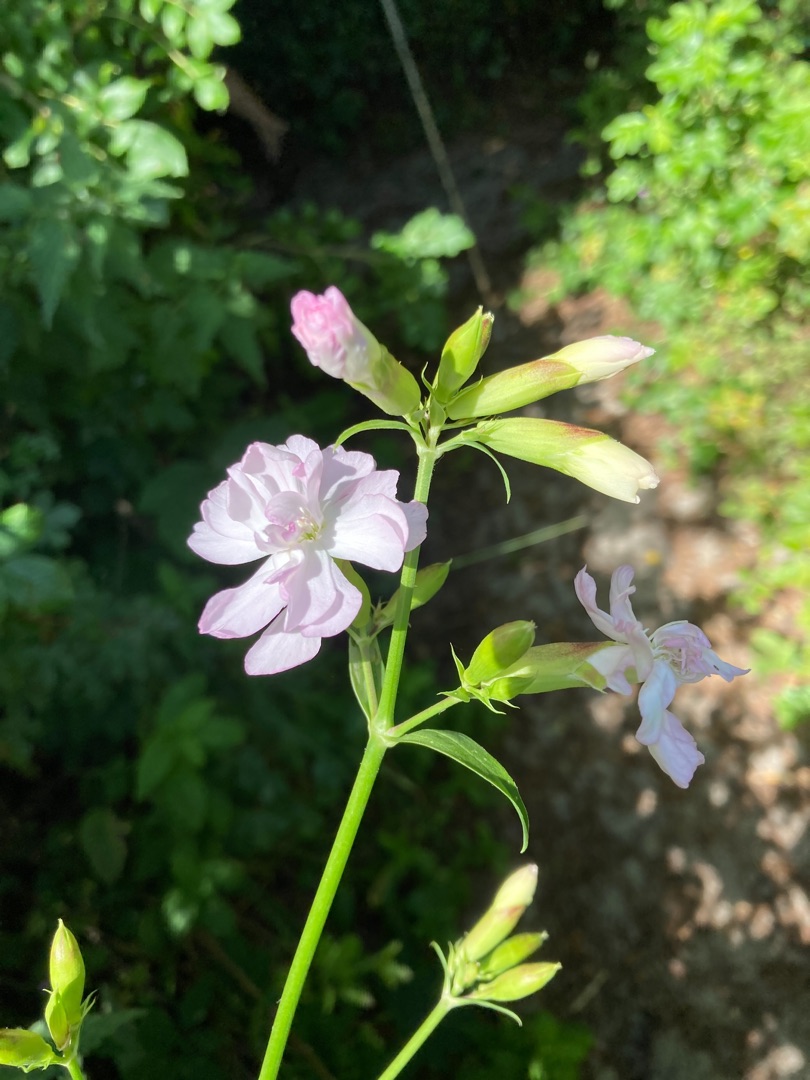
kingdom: Plantae
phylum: Tracheophyta
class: Magnoliopsida
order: Caryophyllales
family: Caryophyllaceae
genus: Saponaria
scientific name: Saponaria officinalis
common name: Sæbeurt
